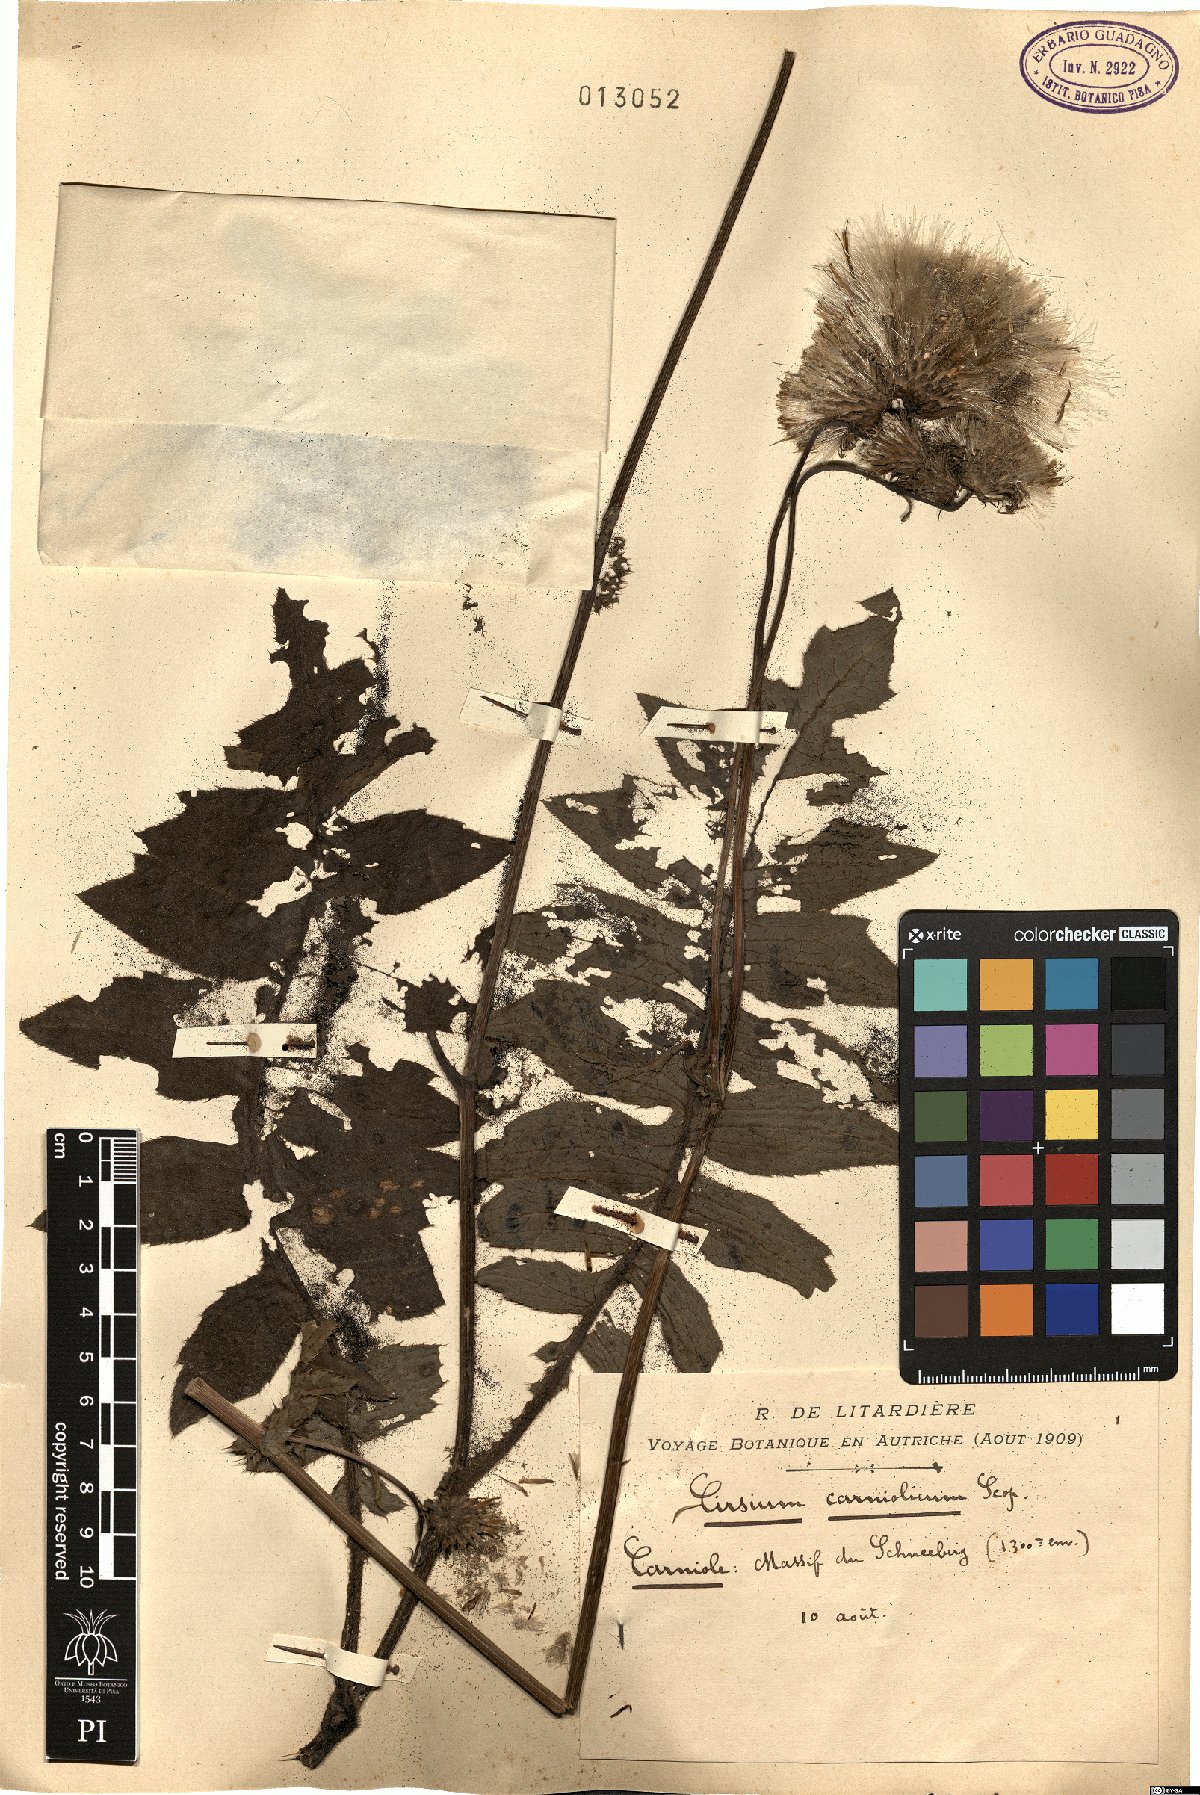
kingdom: Plantae
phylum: Tracheophyta
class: Magnoliopsida
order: Asterales
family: Asteraceae
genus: Cirsium
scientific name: Cirsium carniolicum
